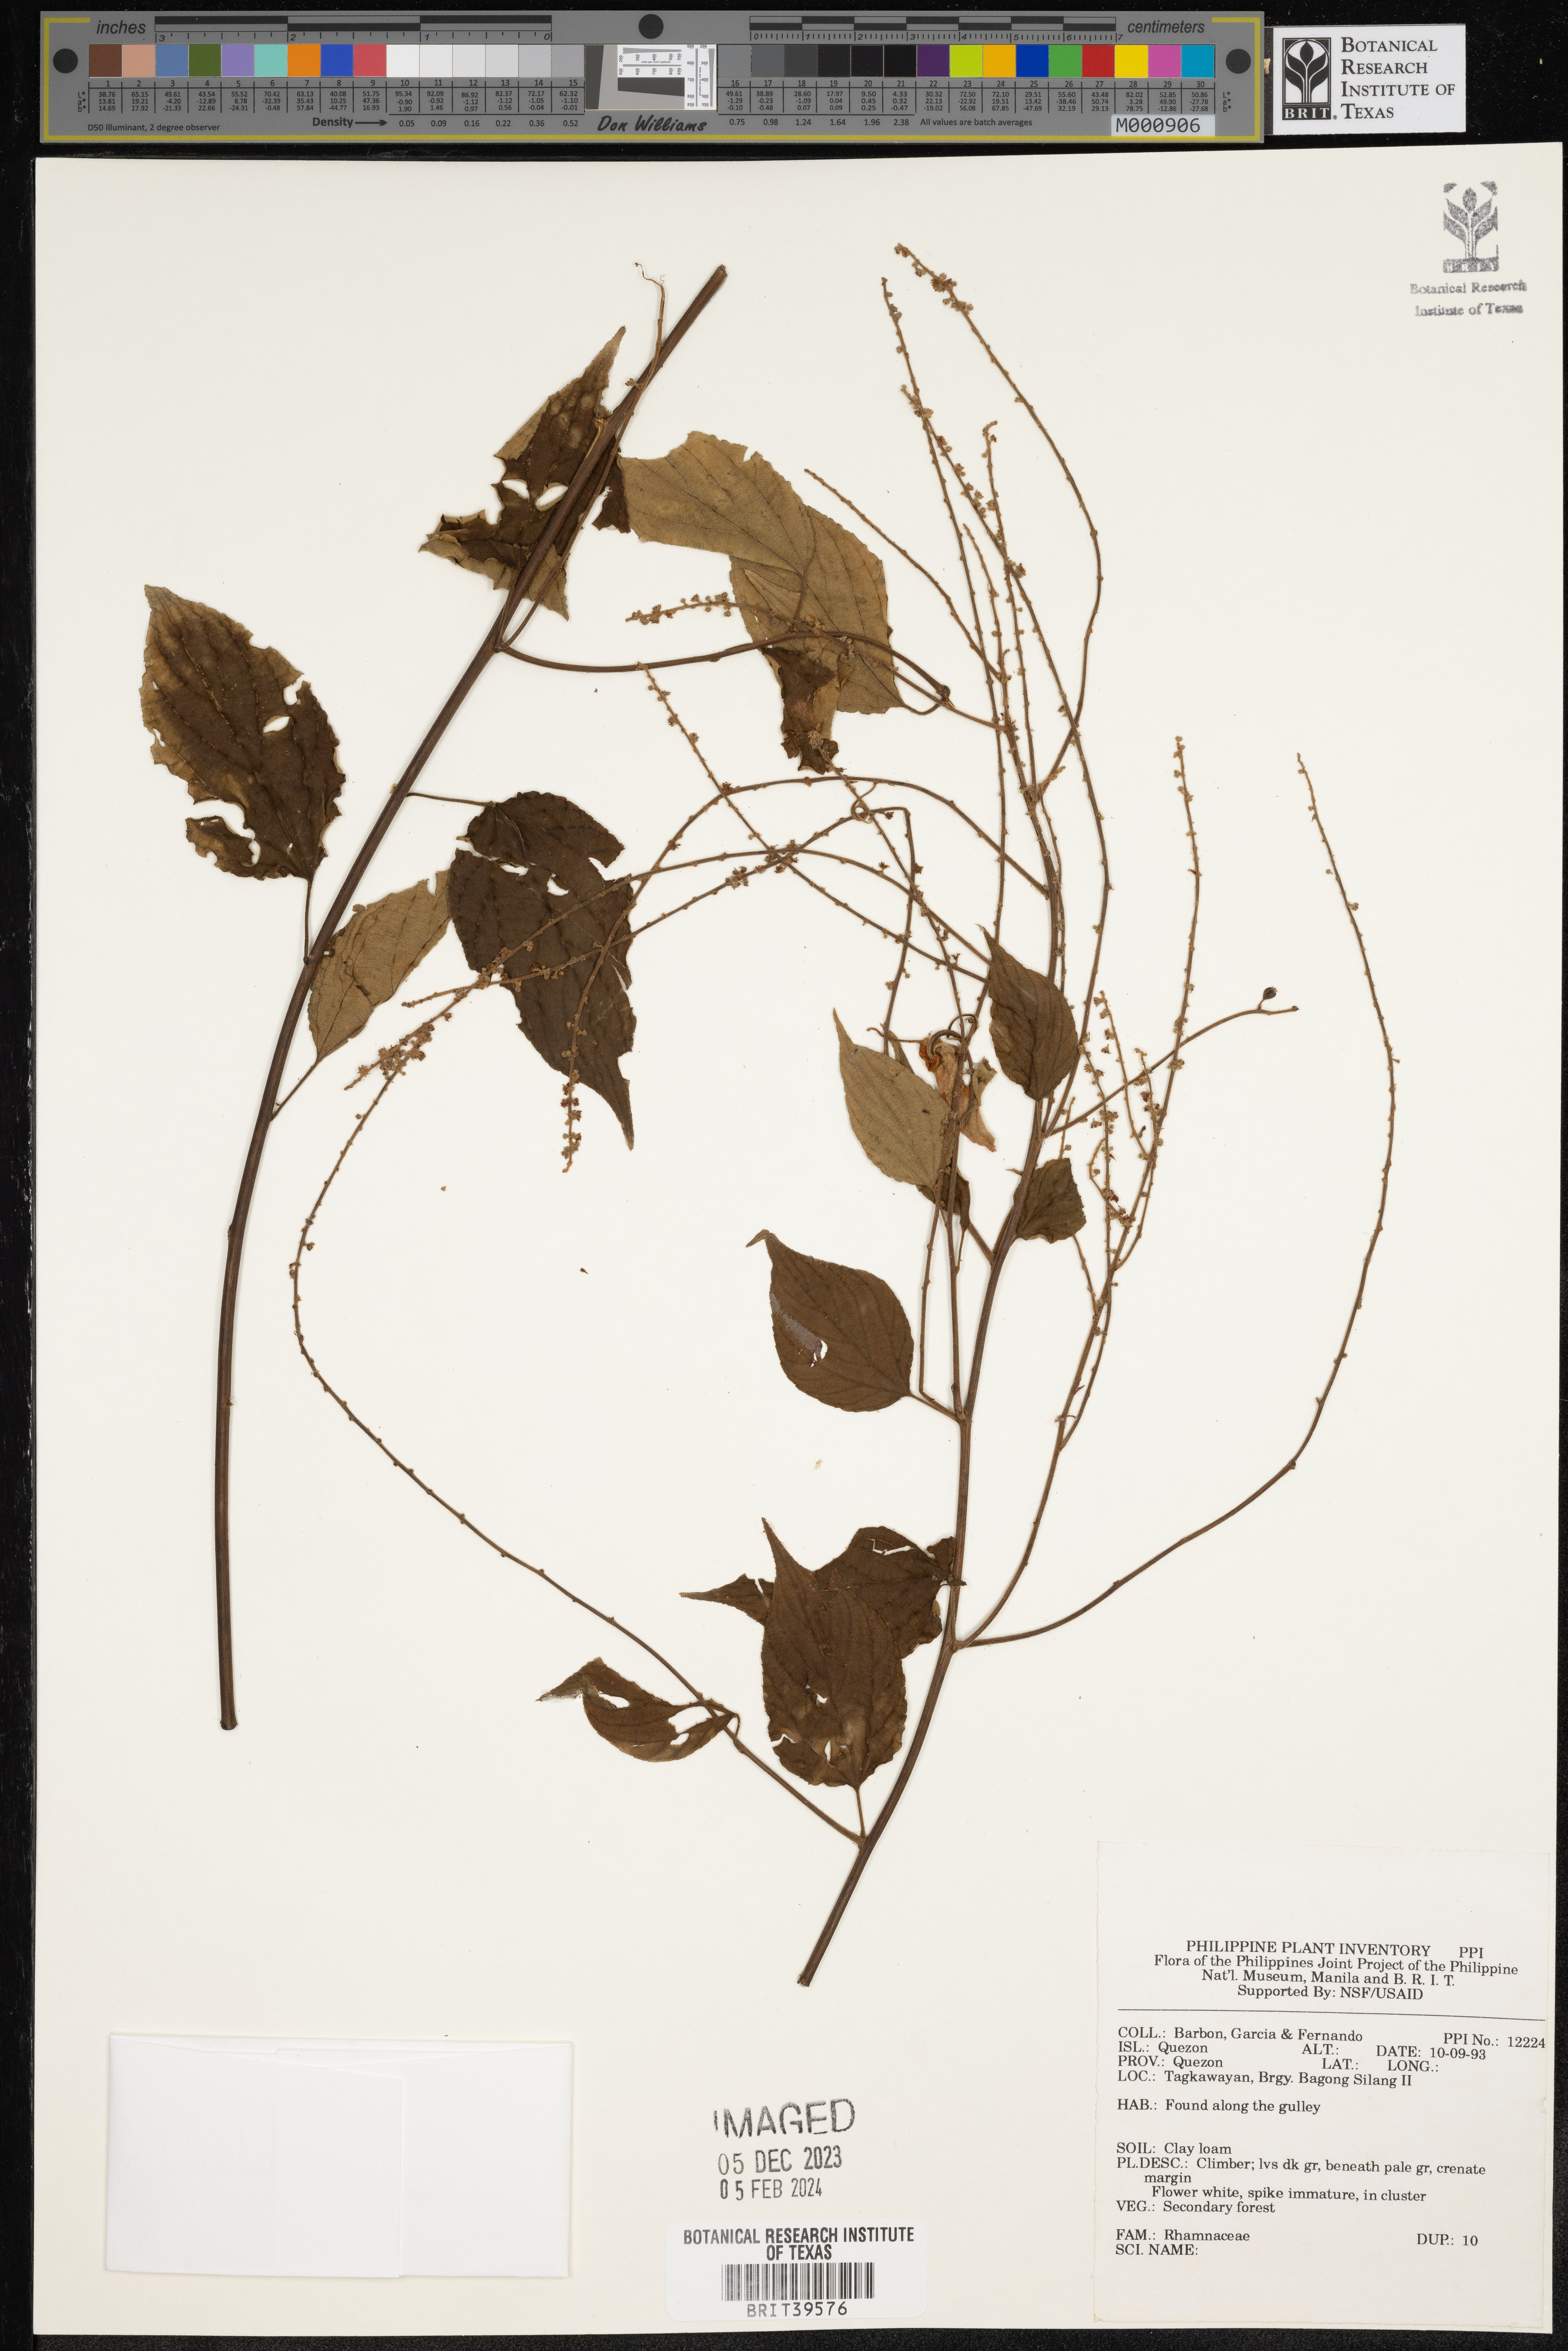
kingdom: Plantae
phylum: Tracheophyta
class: Magnoliopsida
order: Rosales
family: Rhamnaceae
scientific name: Rhamnaceae
